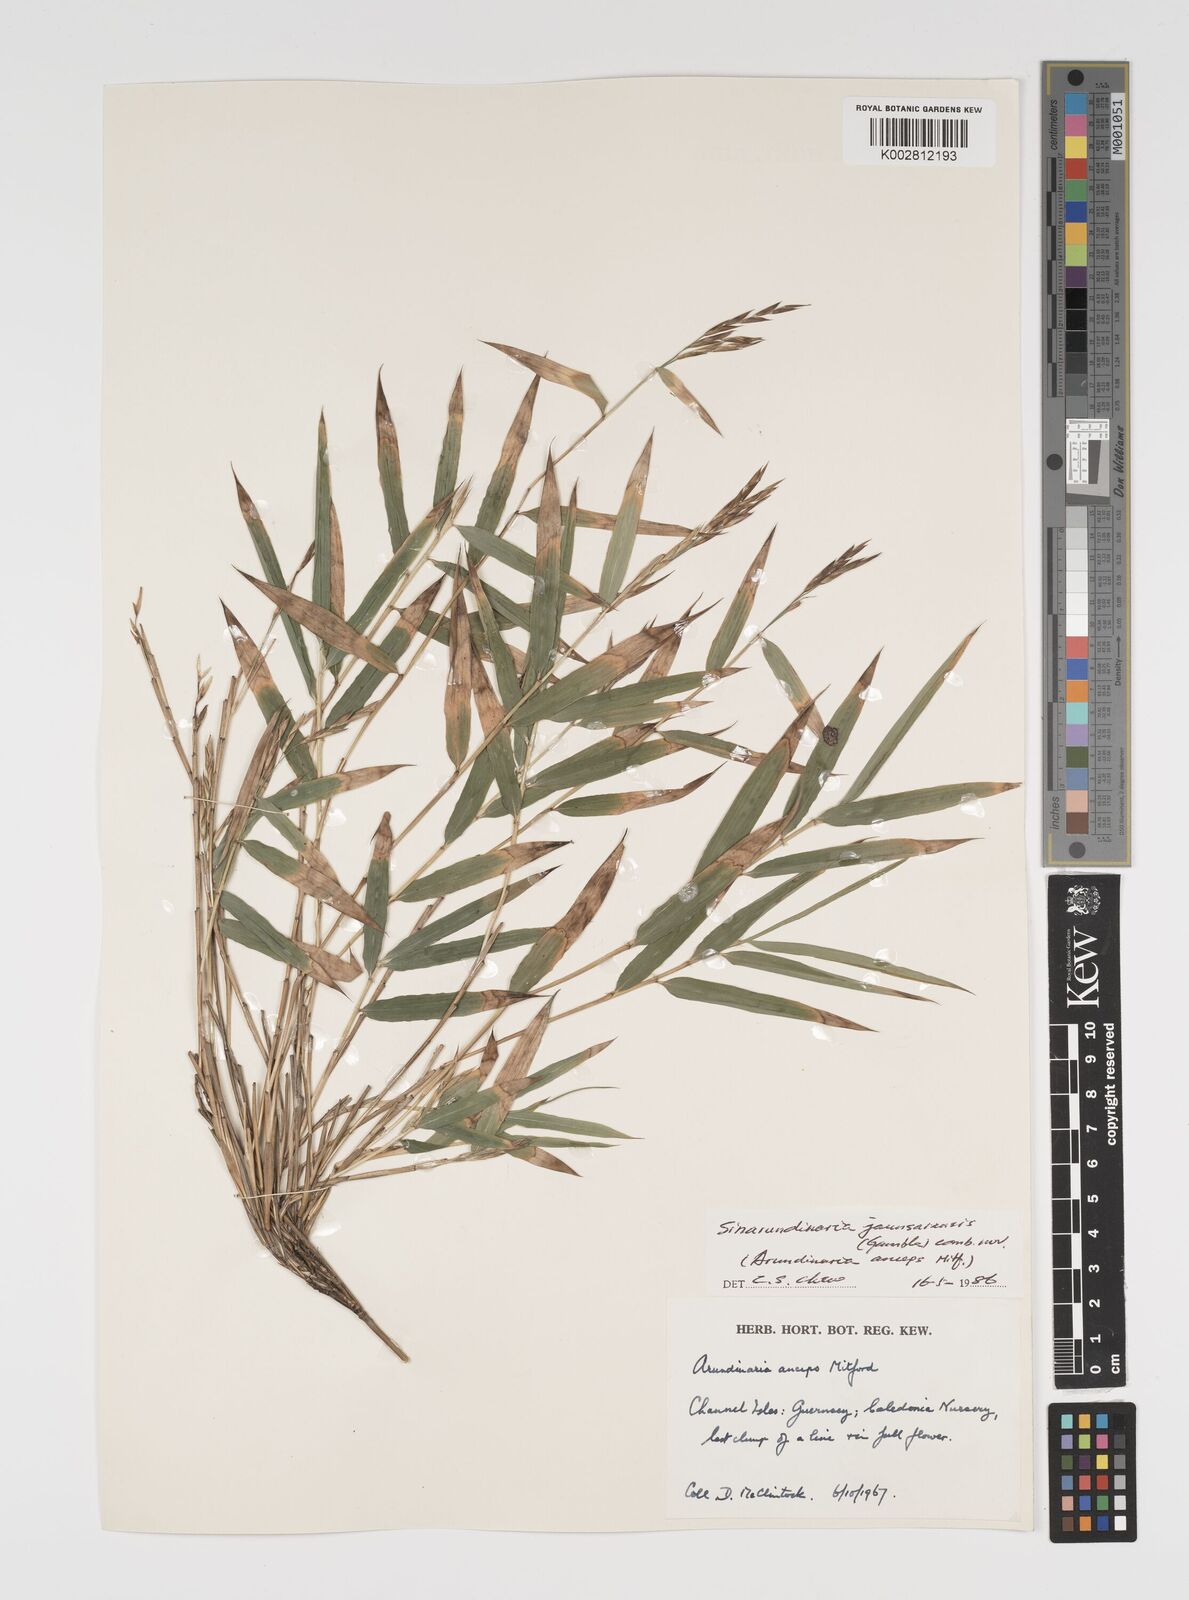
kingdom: Plantae
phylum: Tracheophyta
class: Liliopsida
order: Poales
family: Poaceae
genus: Yushania
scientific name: Yushania anceps
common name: Indian fountain-bamboo
